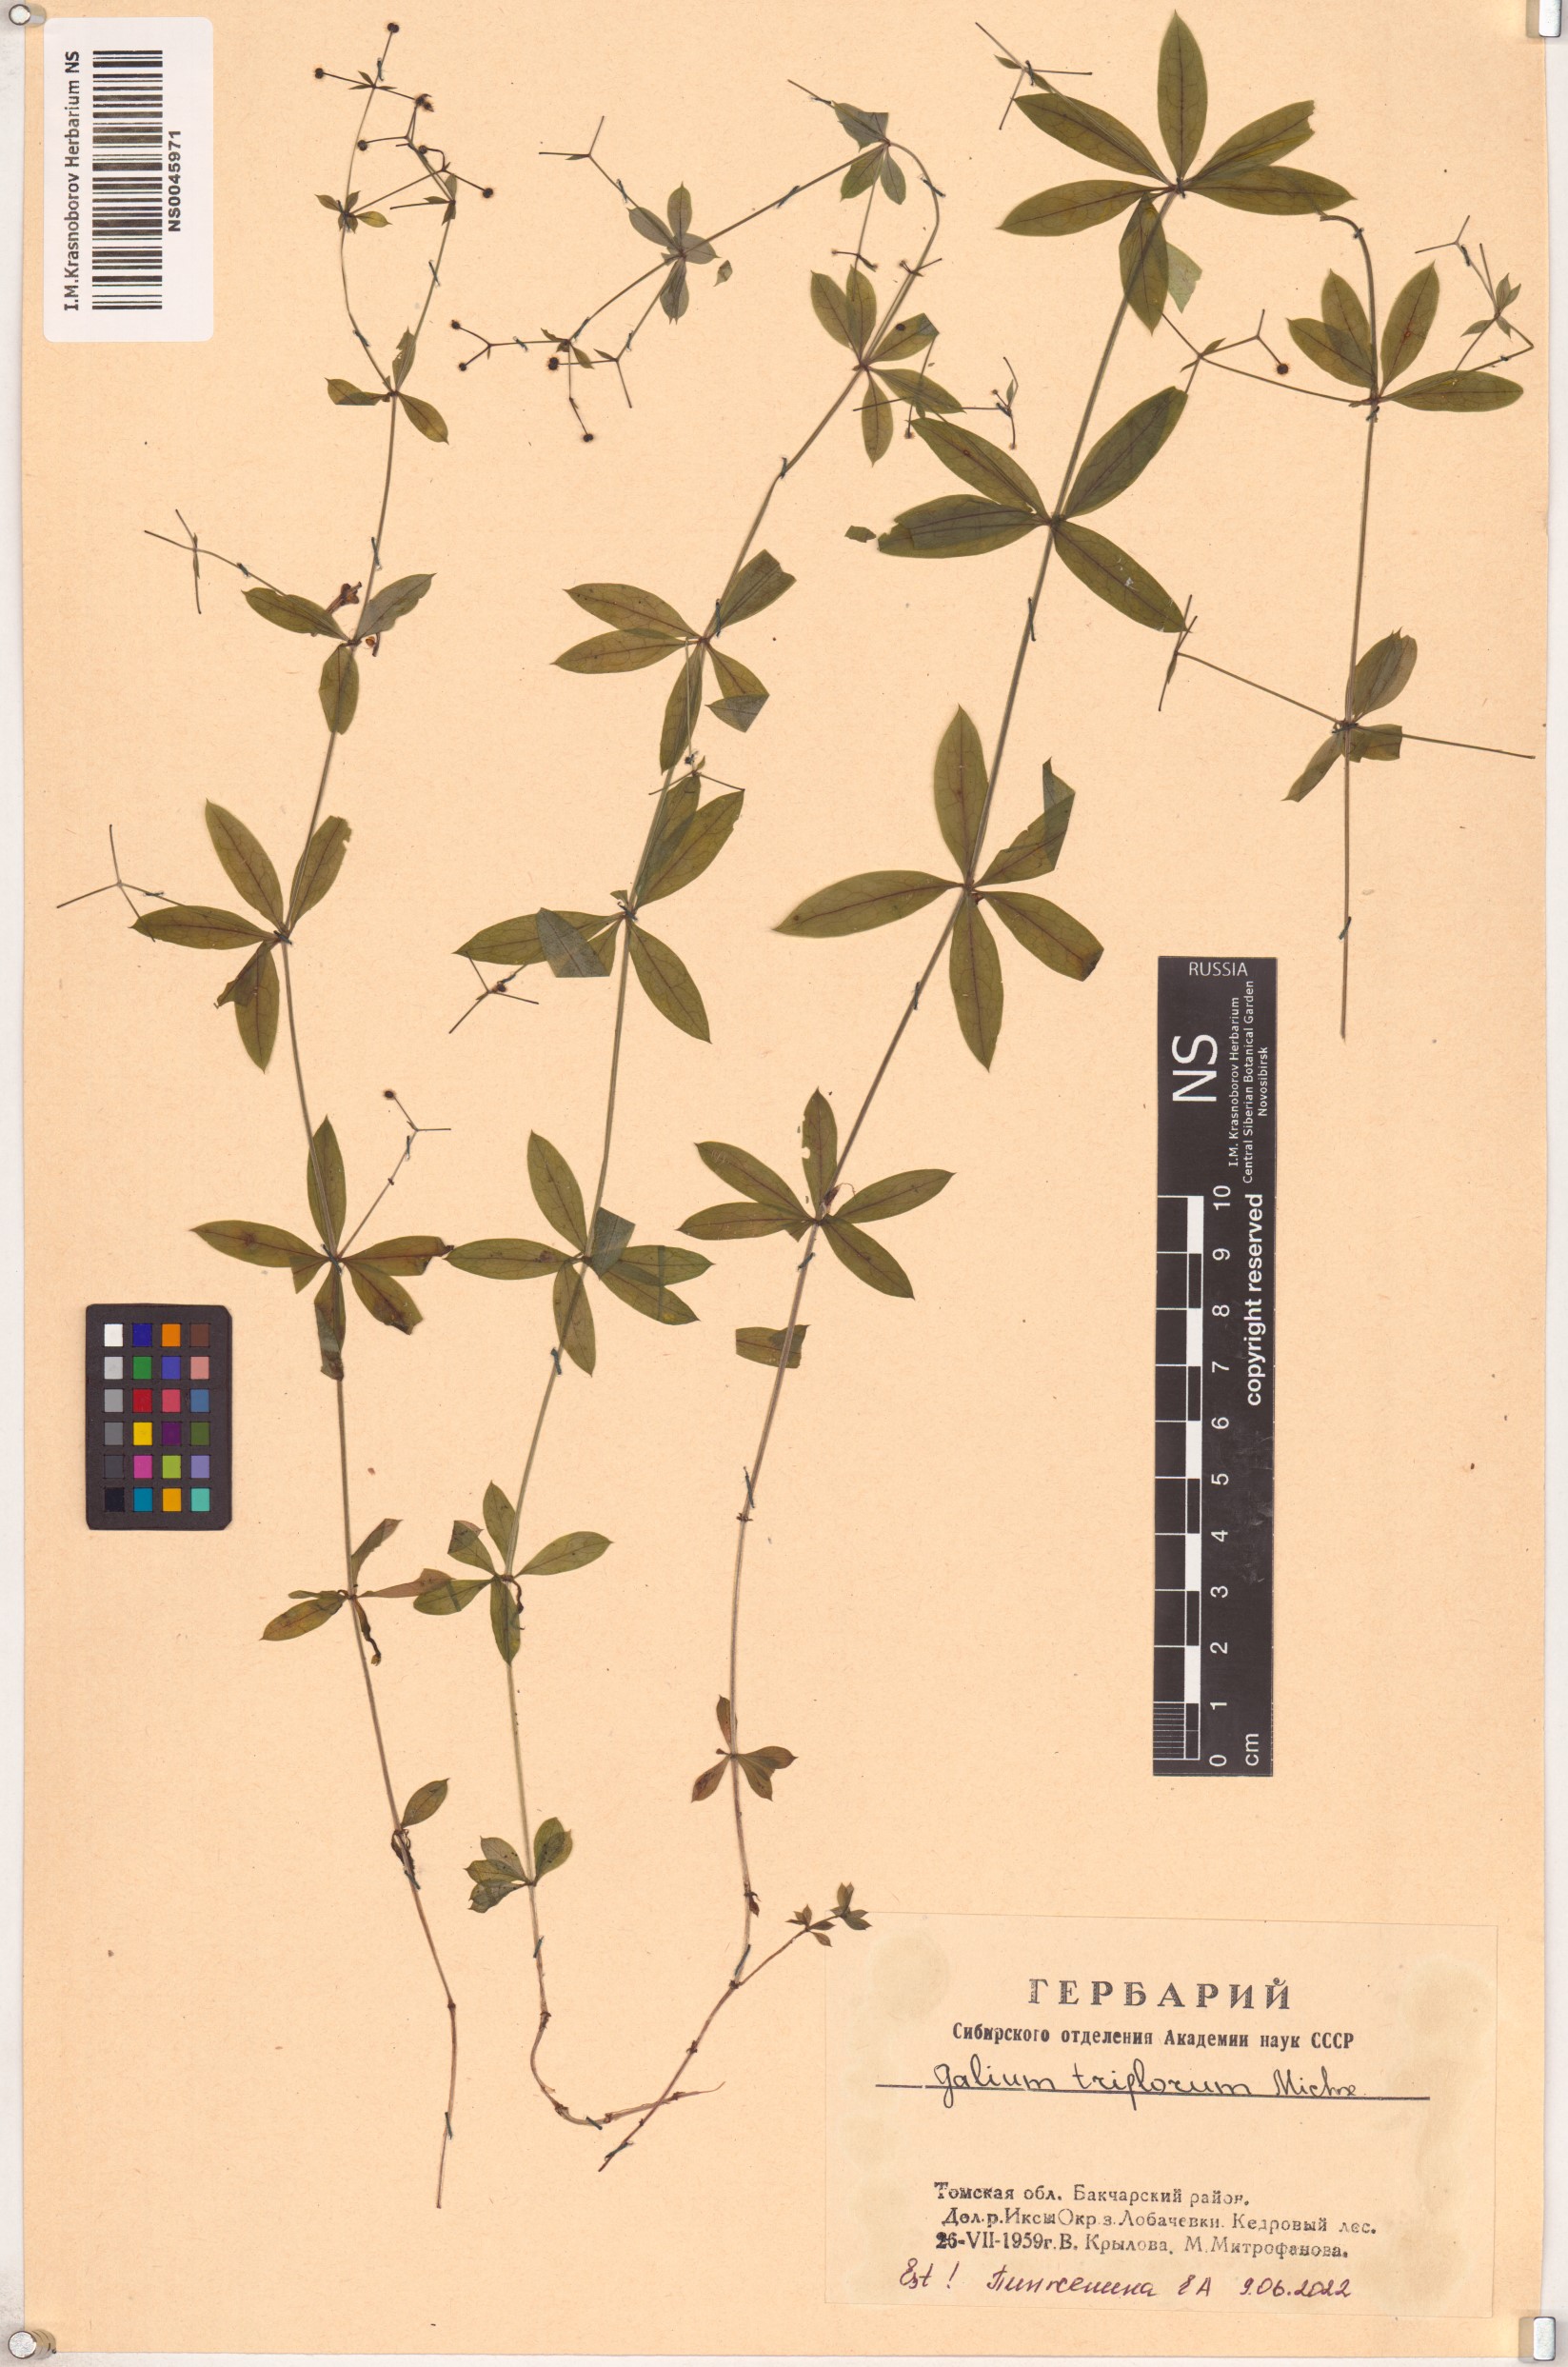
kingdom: Plantae
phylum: Tracheophyta
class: Magnoliopsida
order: Gentianales
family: Rubiaceae
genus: Galium
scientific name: Galium triflorum
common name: Fragrant bedstraw
